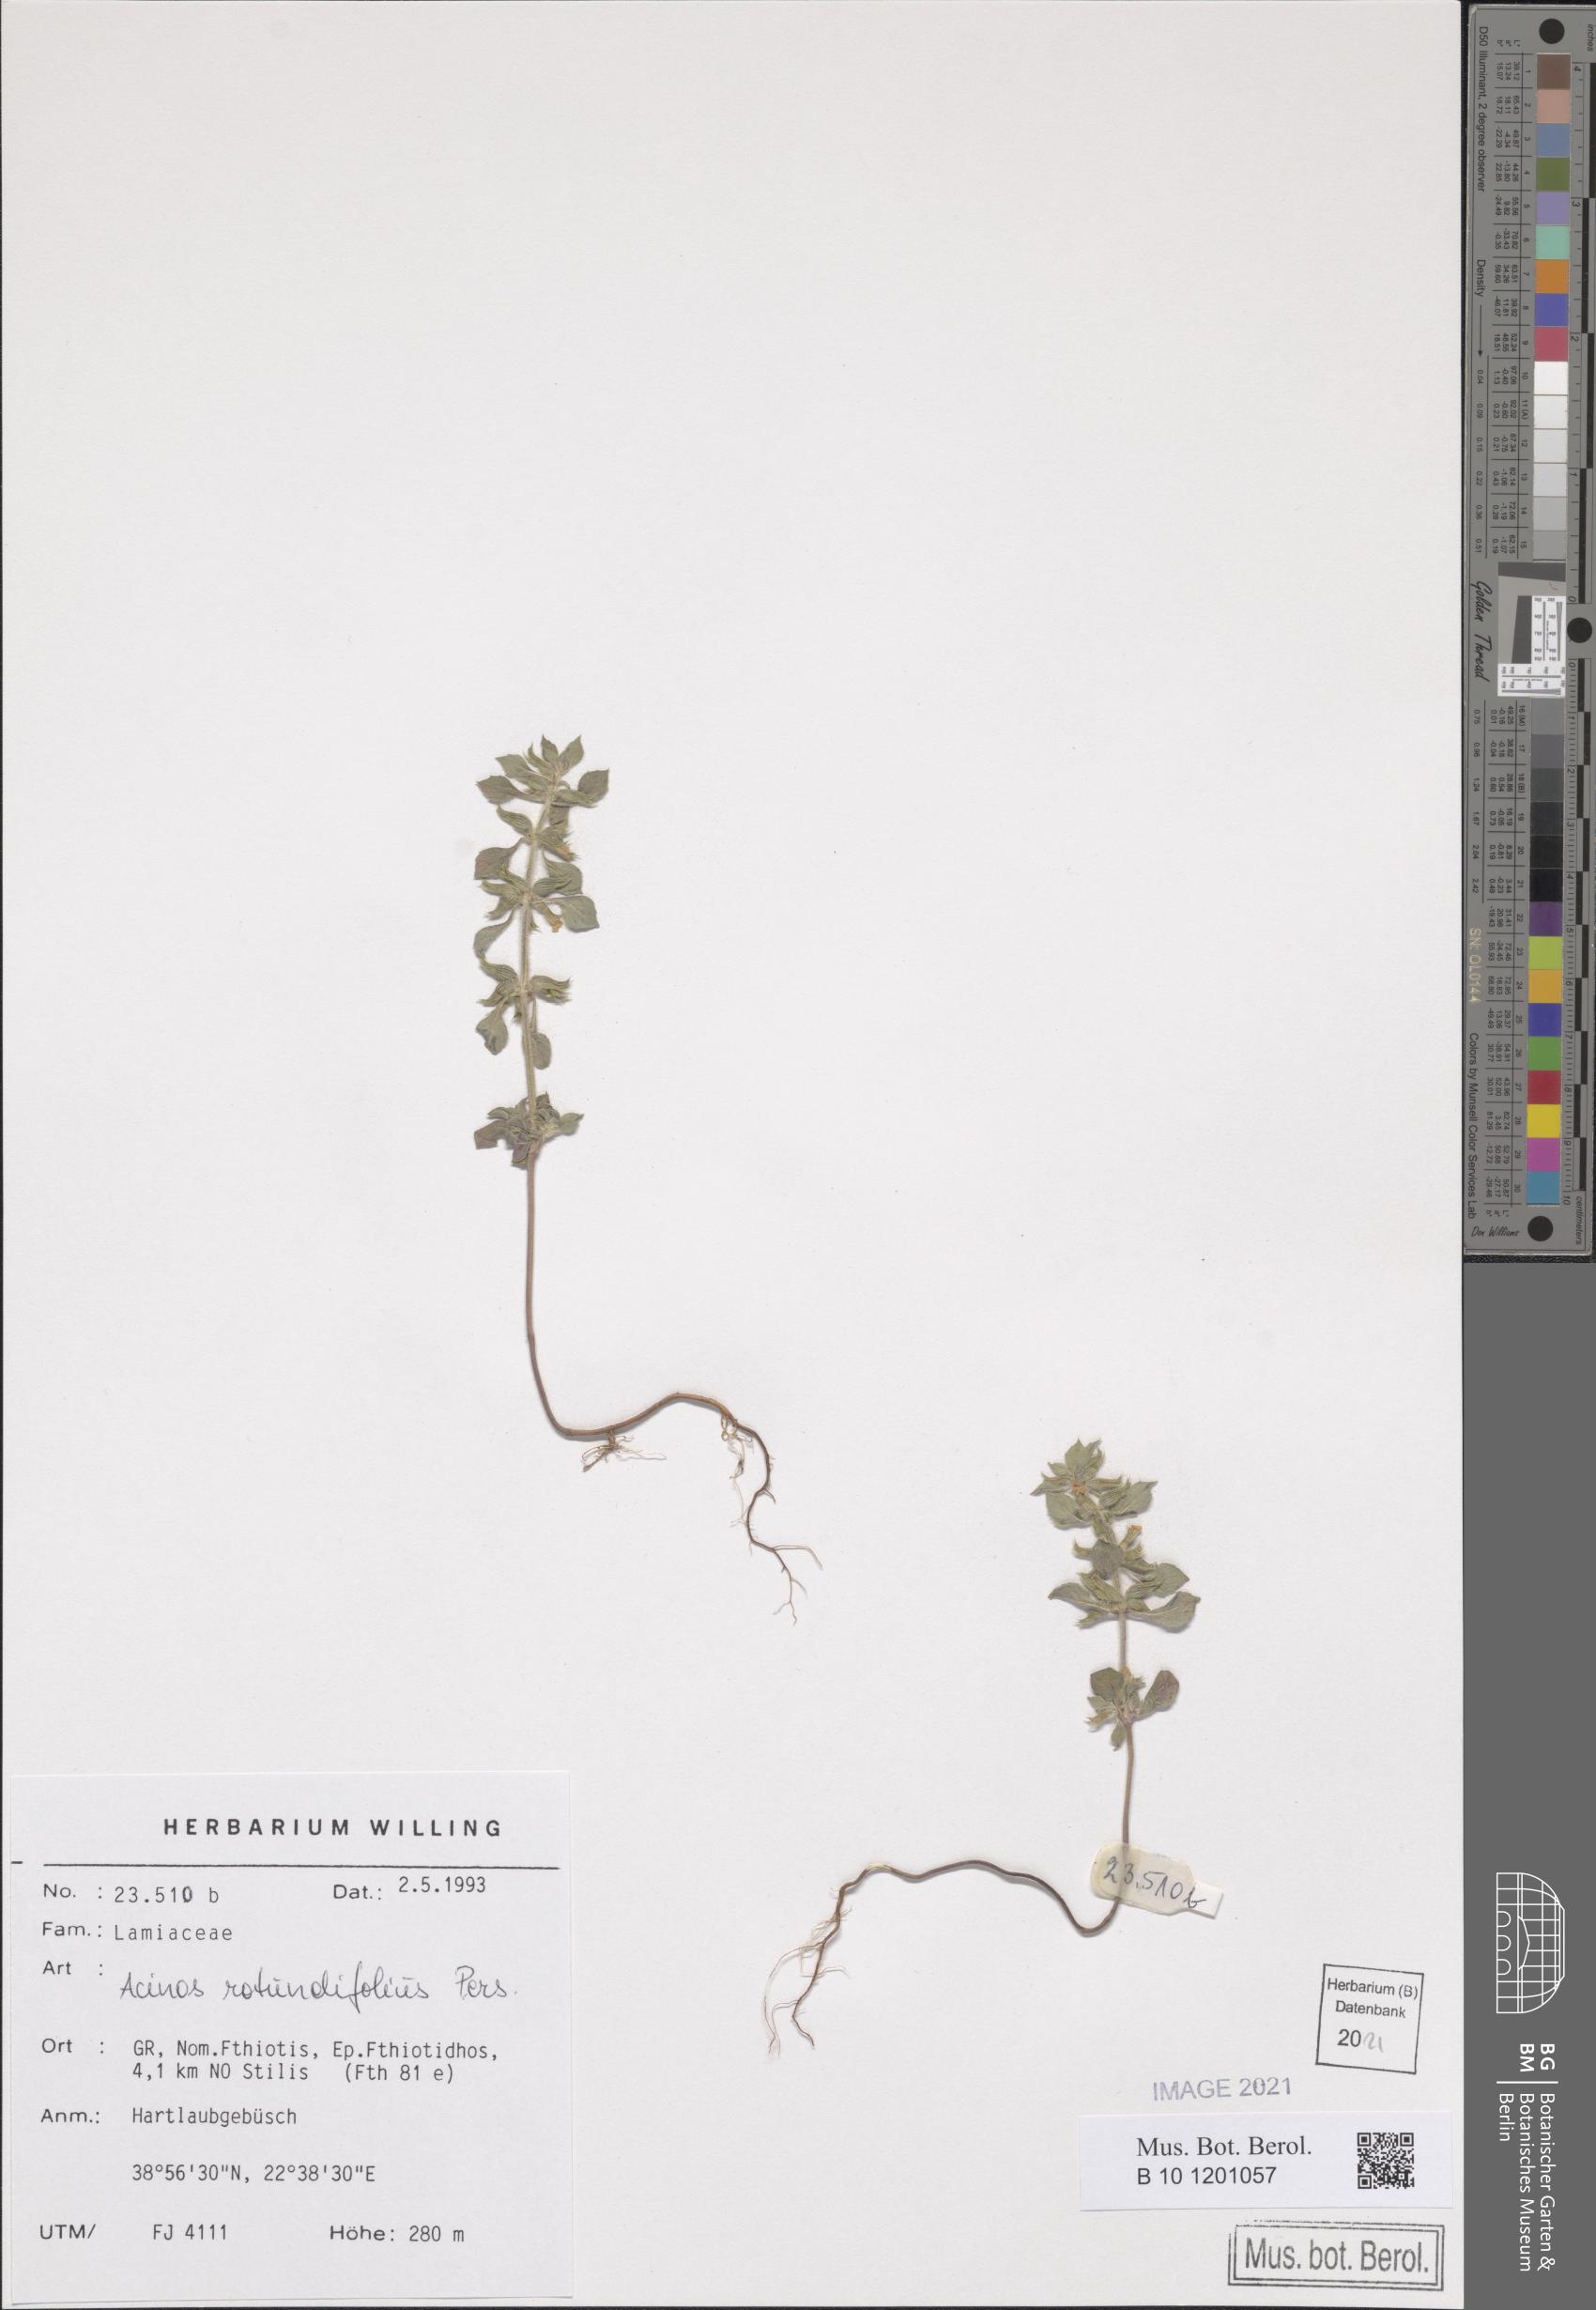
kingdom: Plantae
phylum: Tracheophyta
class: Magnoliopsida
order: Lamiales
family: Lamiaceae
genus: Clinopodium
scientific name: Clinopodium graveolens
